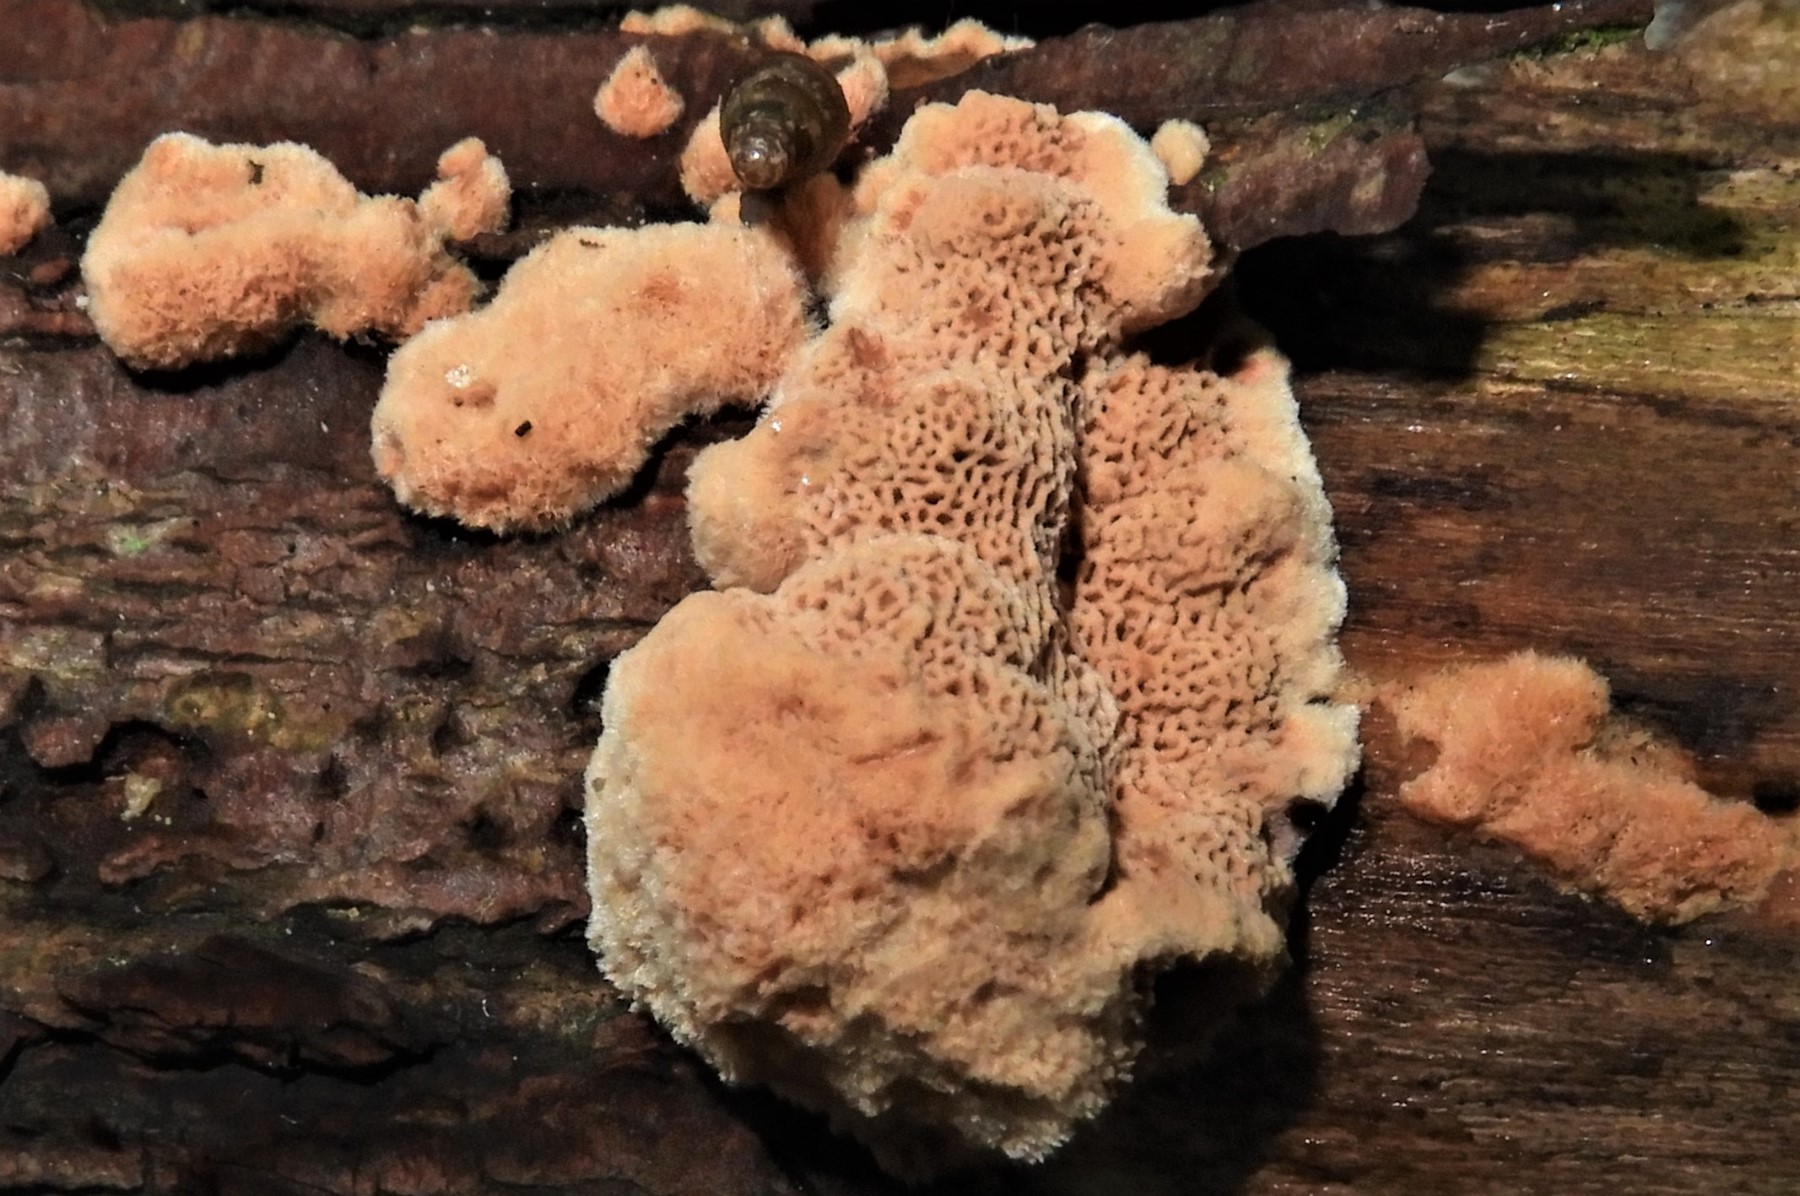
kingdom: Fungi
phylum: Basidiomycota
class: Agaricomycetes
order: Polyporales
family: Phanerochaetaceae
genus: Hapalopilus
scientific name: Hapalopilus rutilans
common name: rødlig okkerporesvamp
